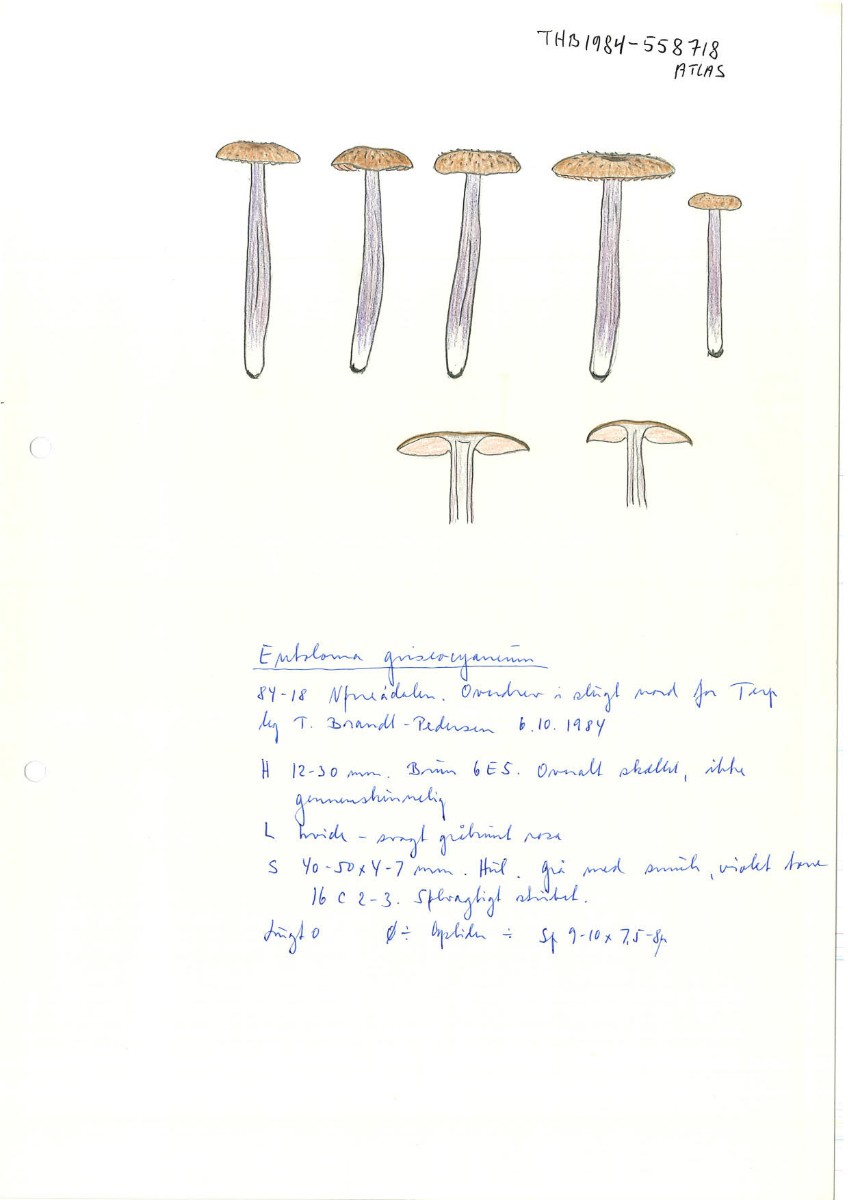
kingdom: Fungi
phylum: Basidiomycota
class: Agaricomycetes
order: Agaricales
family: Entolomataceae
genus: Entoloma
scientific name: Entoloma griseocyaneum
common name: gråblå rødblad
